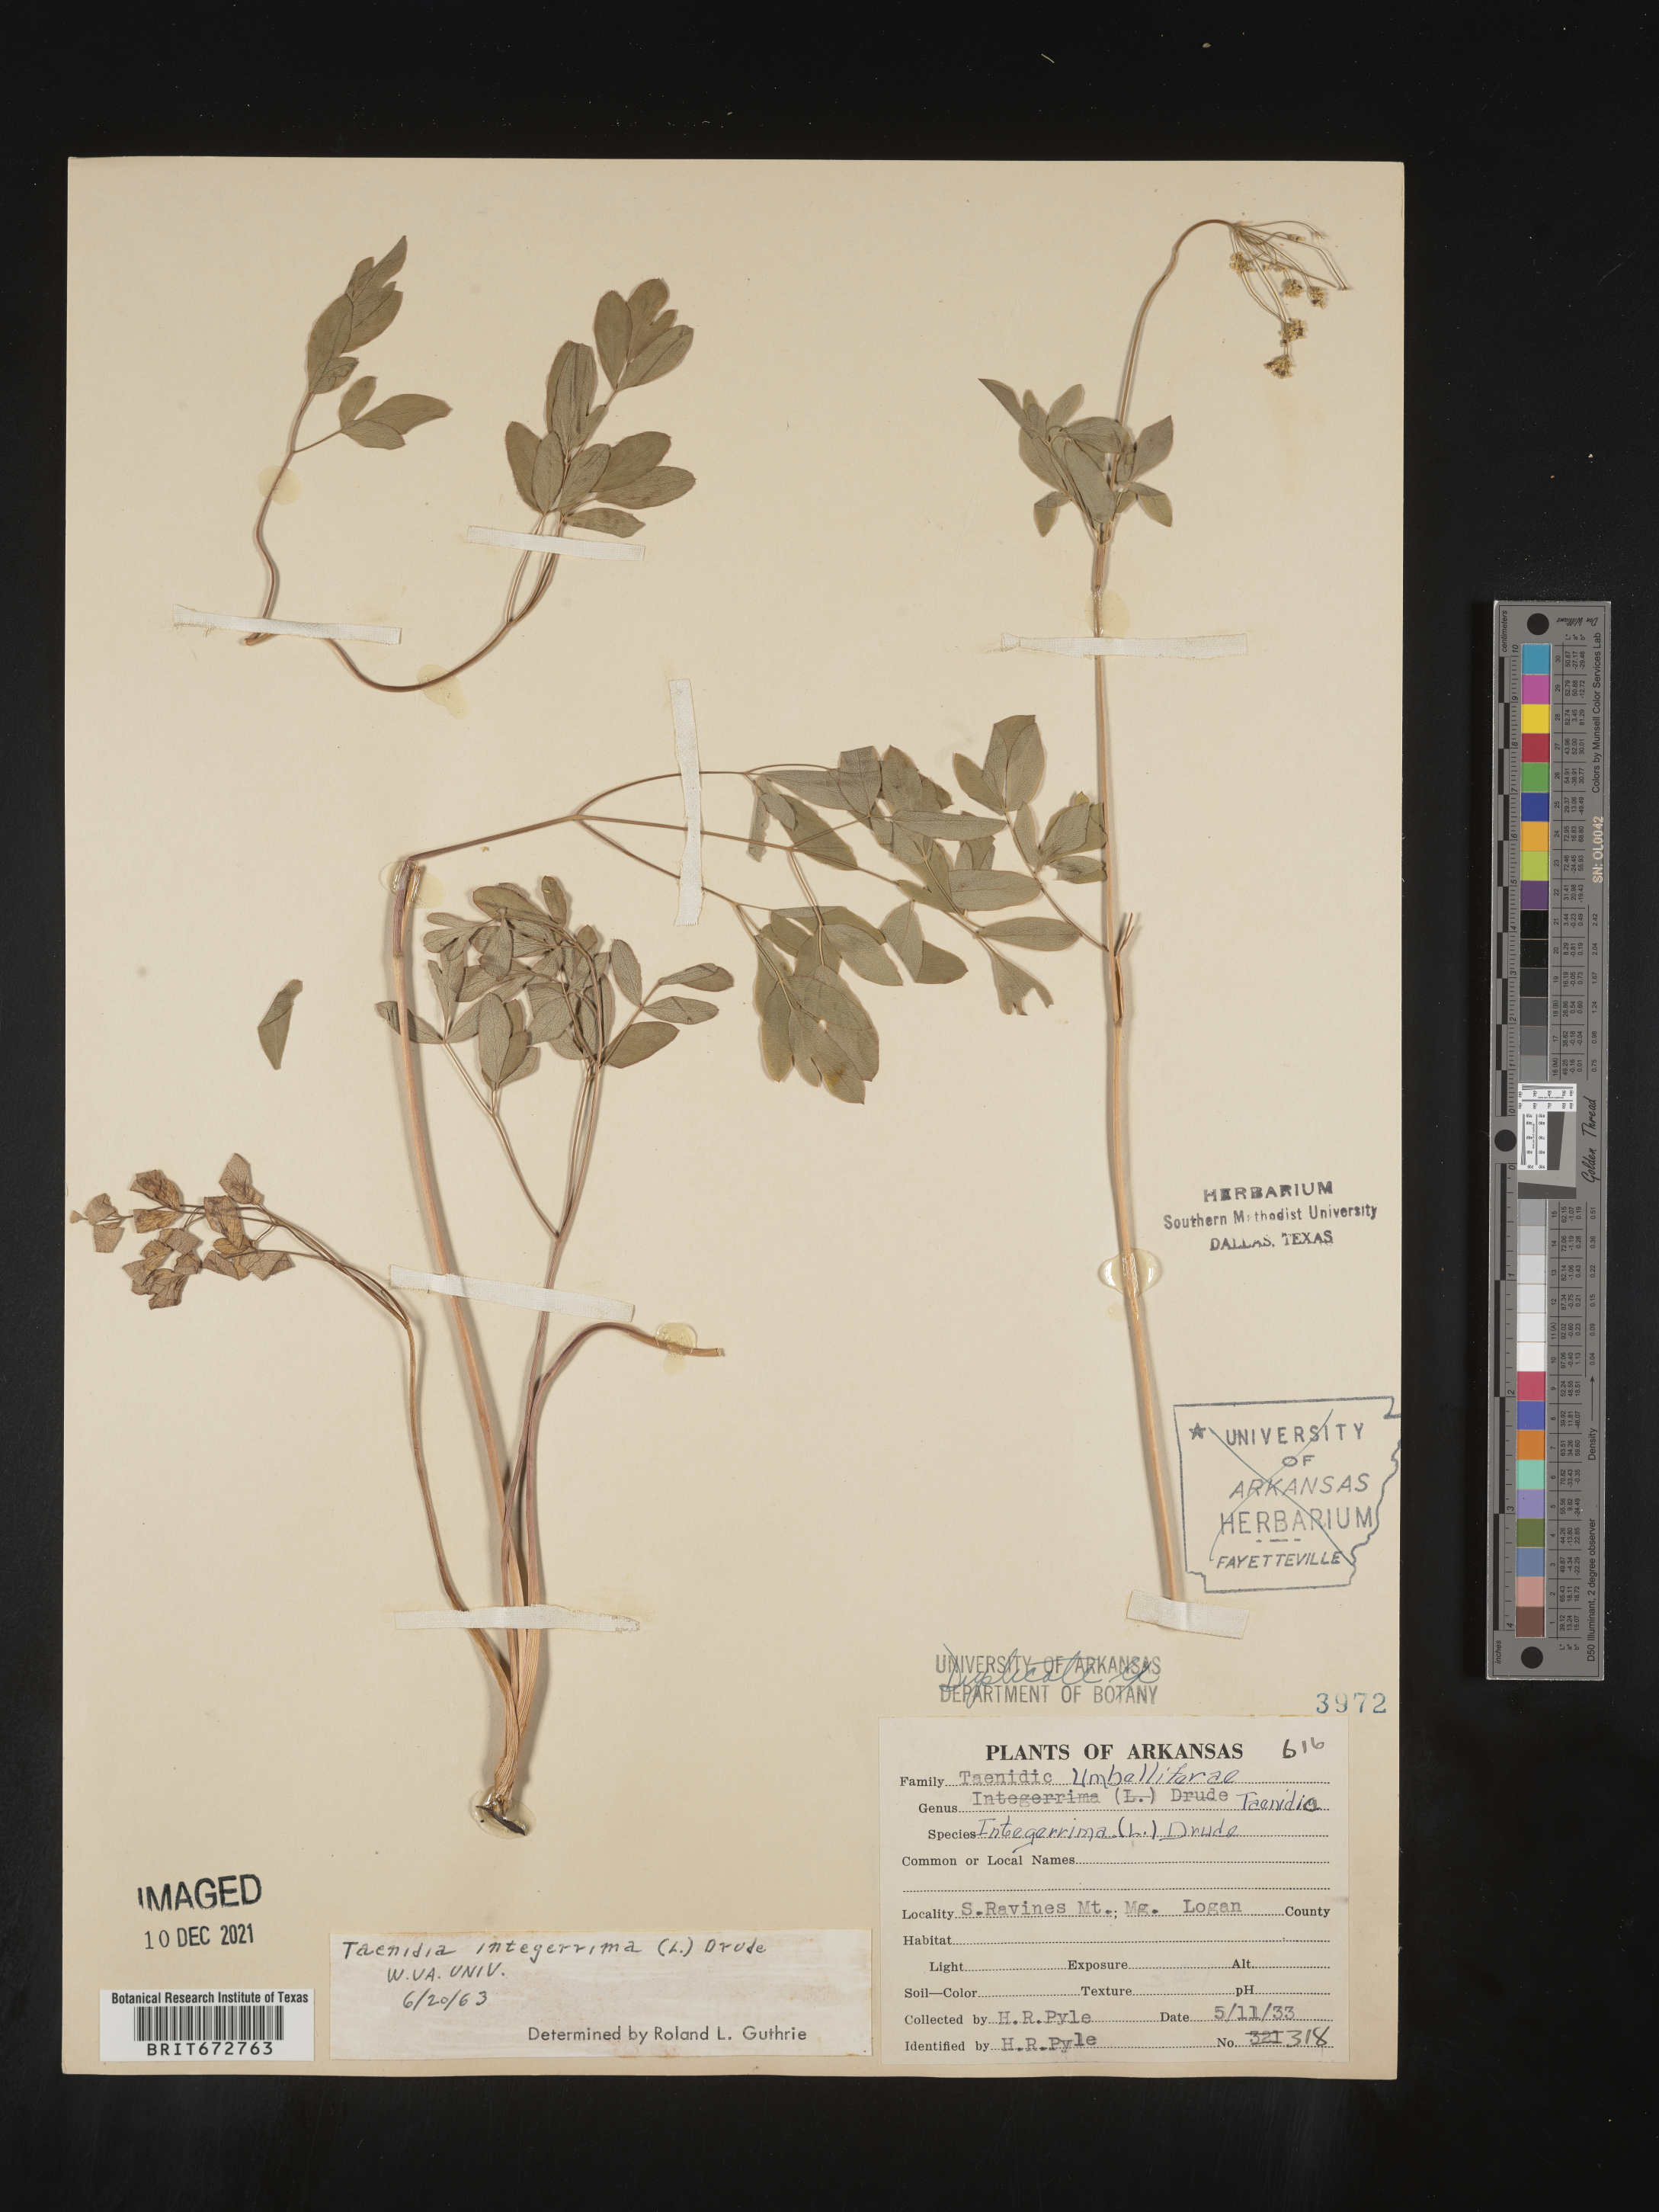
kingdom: Plantae
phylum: Tracheophyta
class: Magnoliopsida
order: Apiales
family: Apiaceae
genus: Taenidia
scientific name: Taenidia integerrima
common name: Golden alexander
